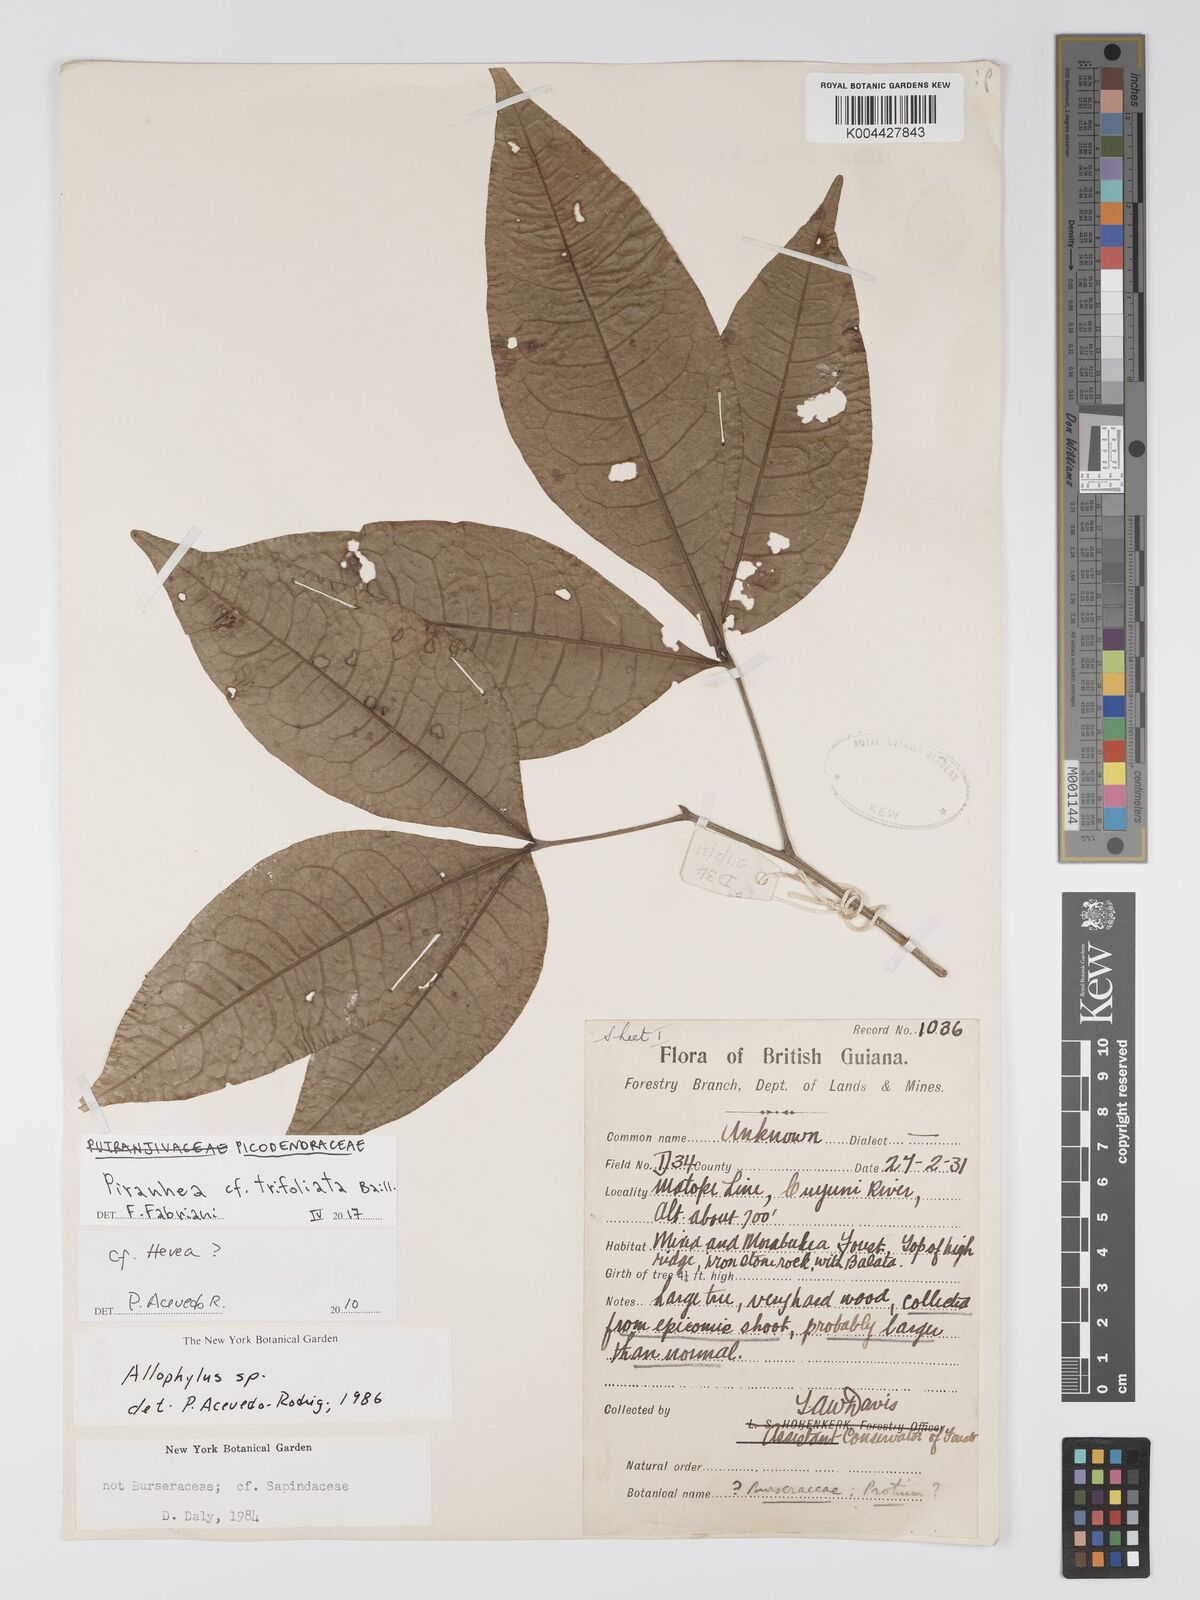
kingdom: Plantae
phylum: Tracheophyta
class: Magnoliopsida
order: Malpighiales
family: Picrodendraceae
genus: Piranhea
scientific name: Piranhea trifoliolata
